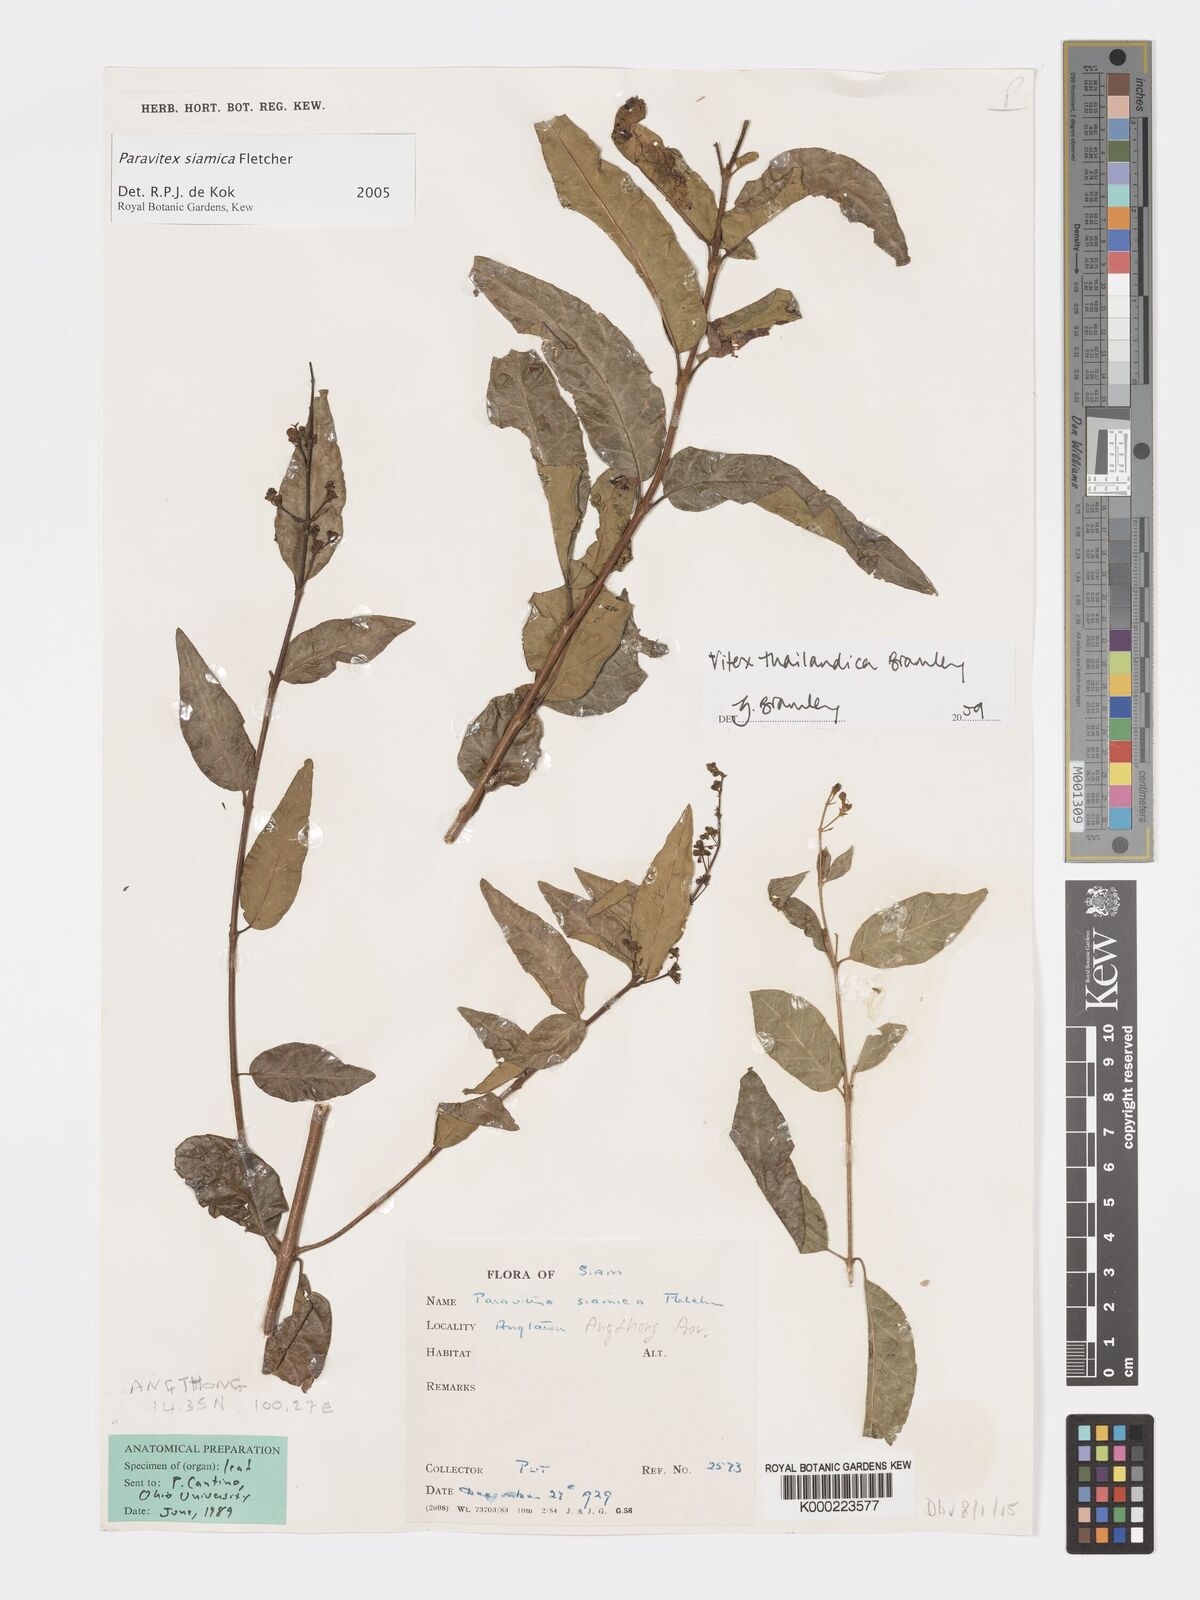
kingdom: Plantae
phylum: Tracheophyta
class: Magnoliopsida
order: Lamiales
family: Lamiaceae
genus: Vitex
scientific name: Vitex thailandica
